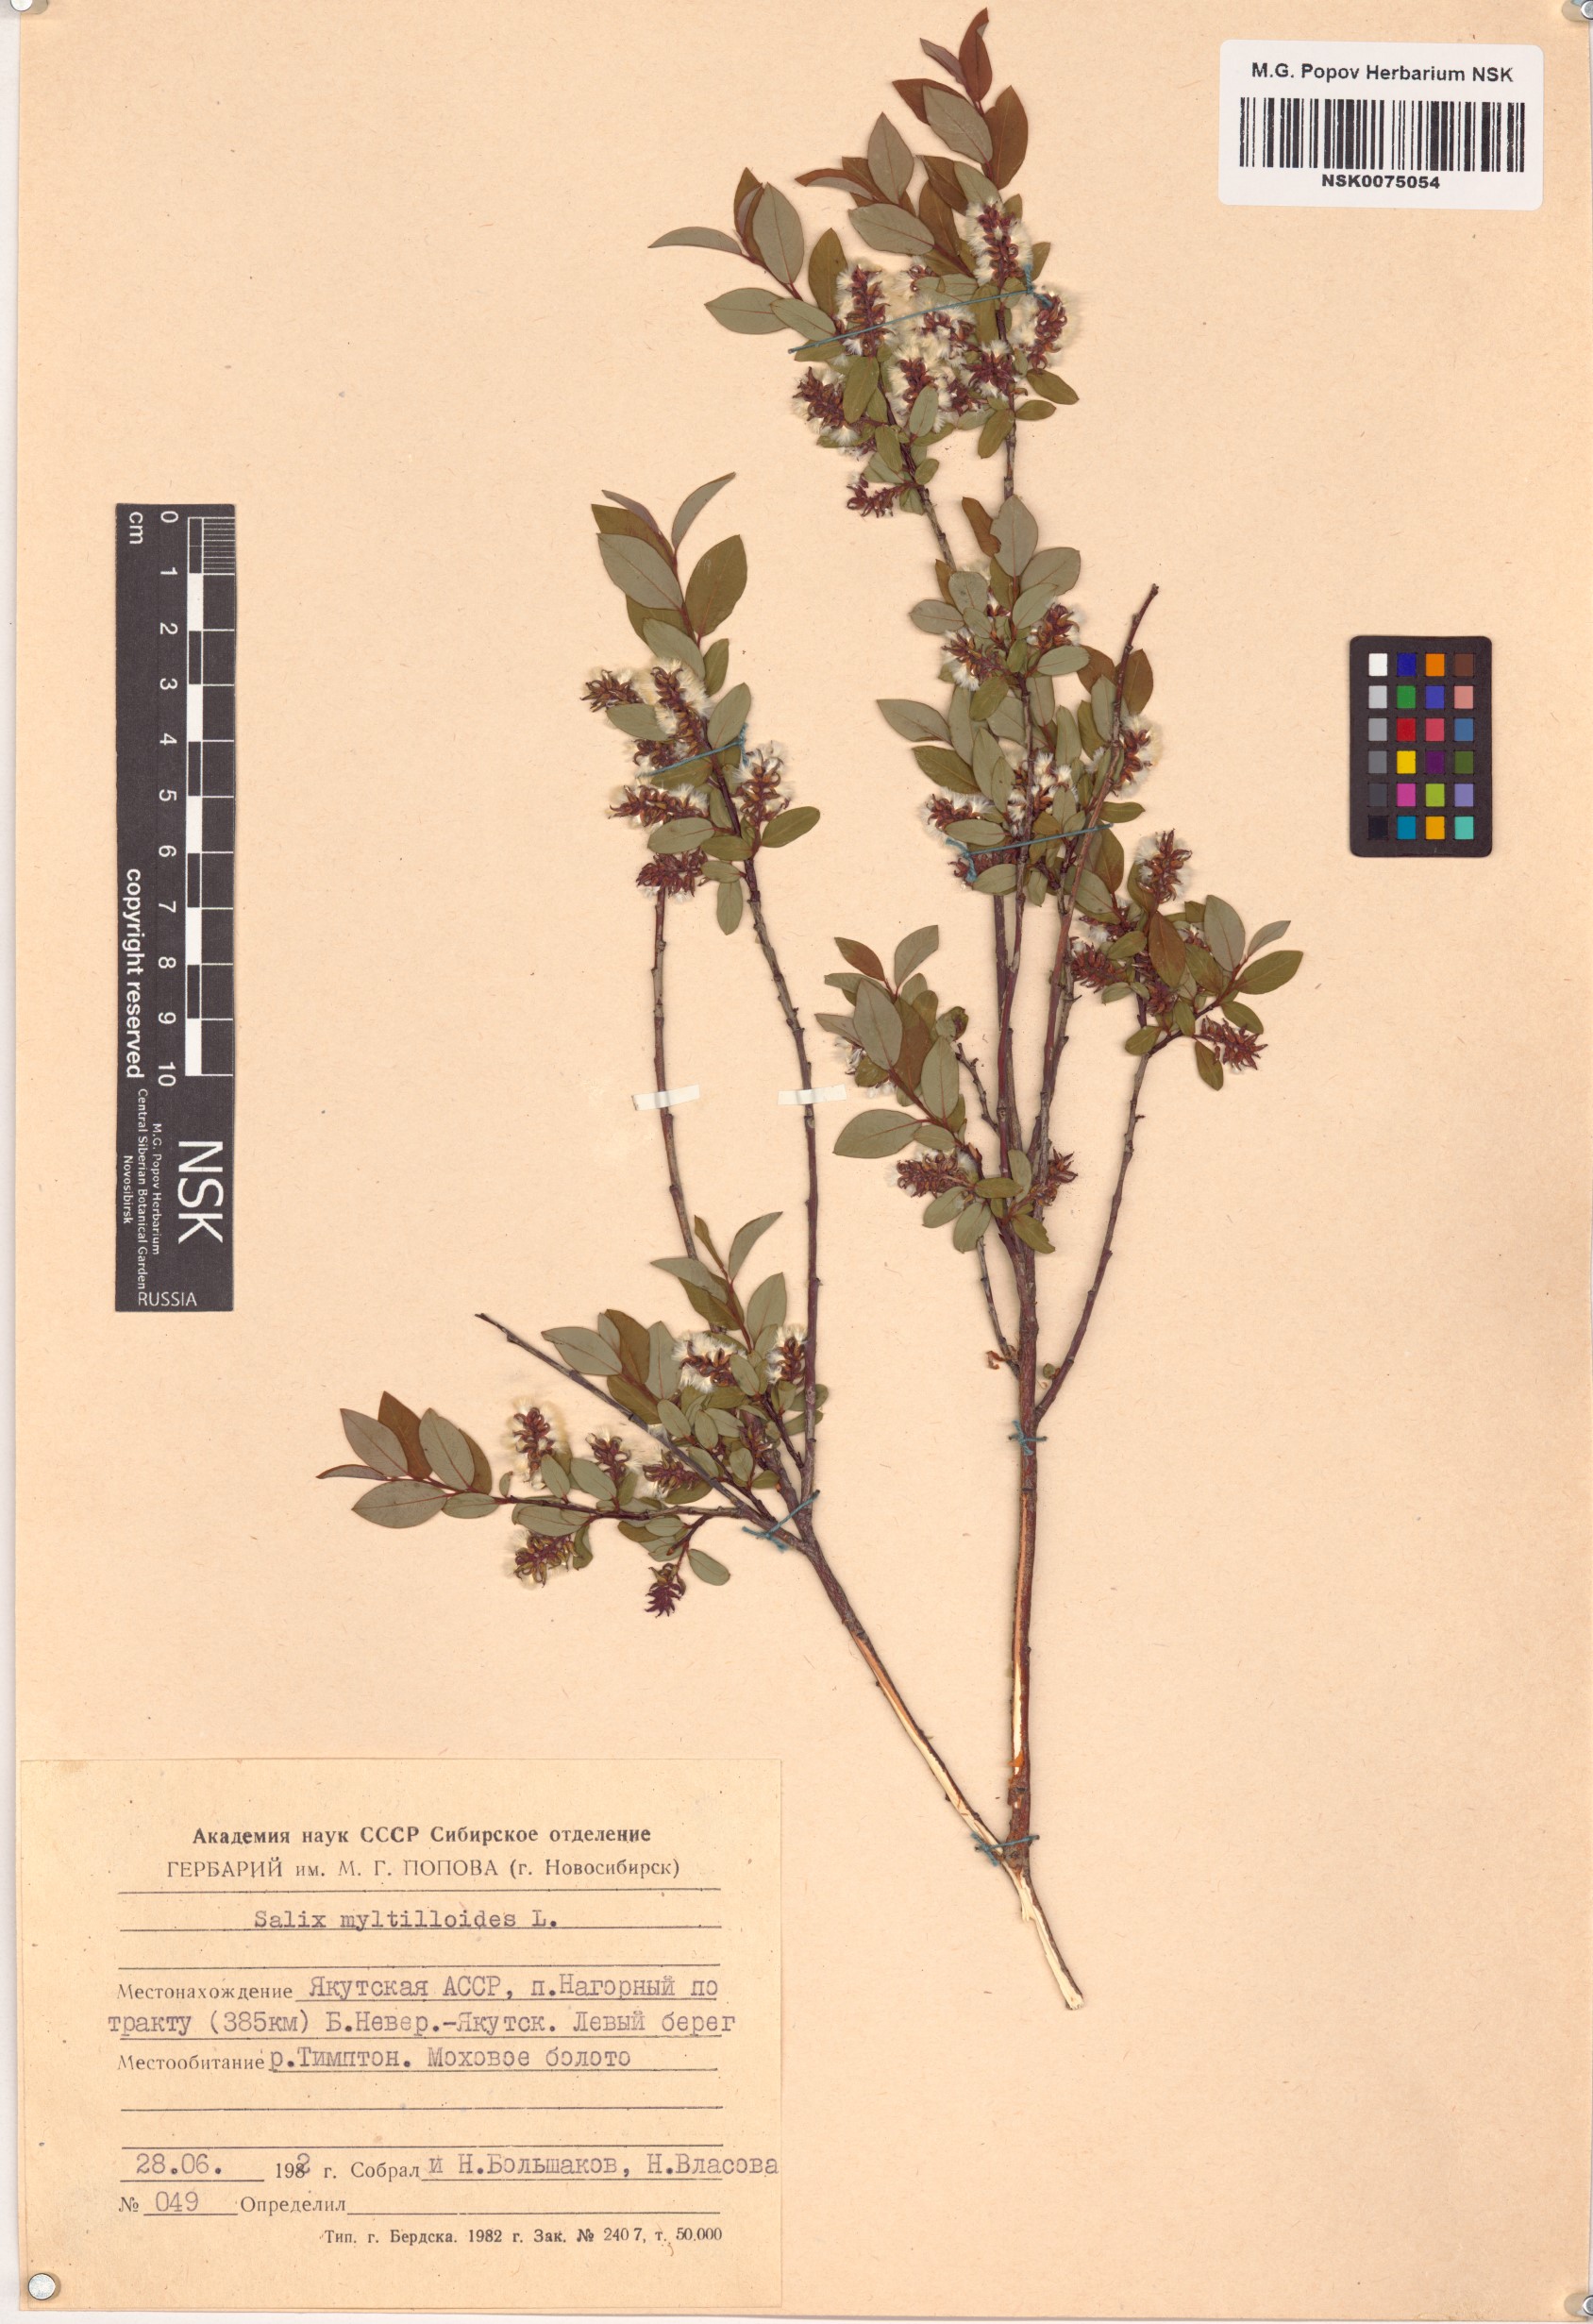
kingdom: Plantae
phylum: Tracheophyta
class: Magnoliopsida
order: Malpighiales
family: Salicaceae
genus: Salix
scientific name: Salix myrtilloides
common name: Myrtle-leaved willow
